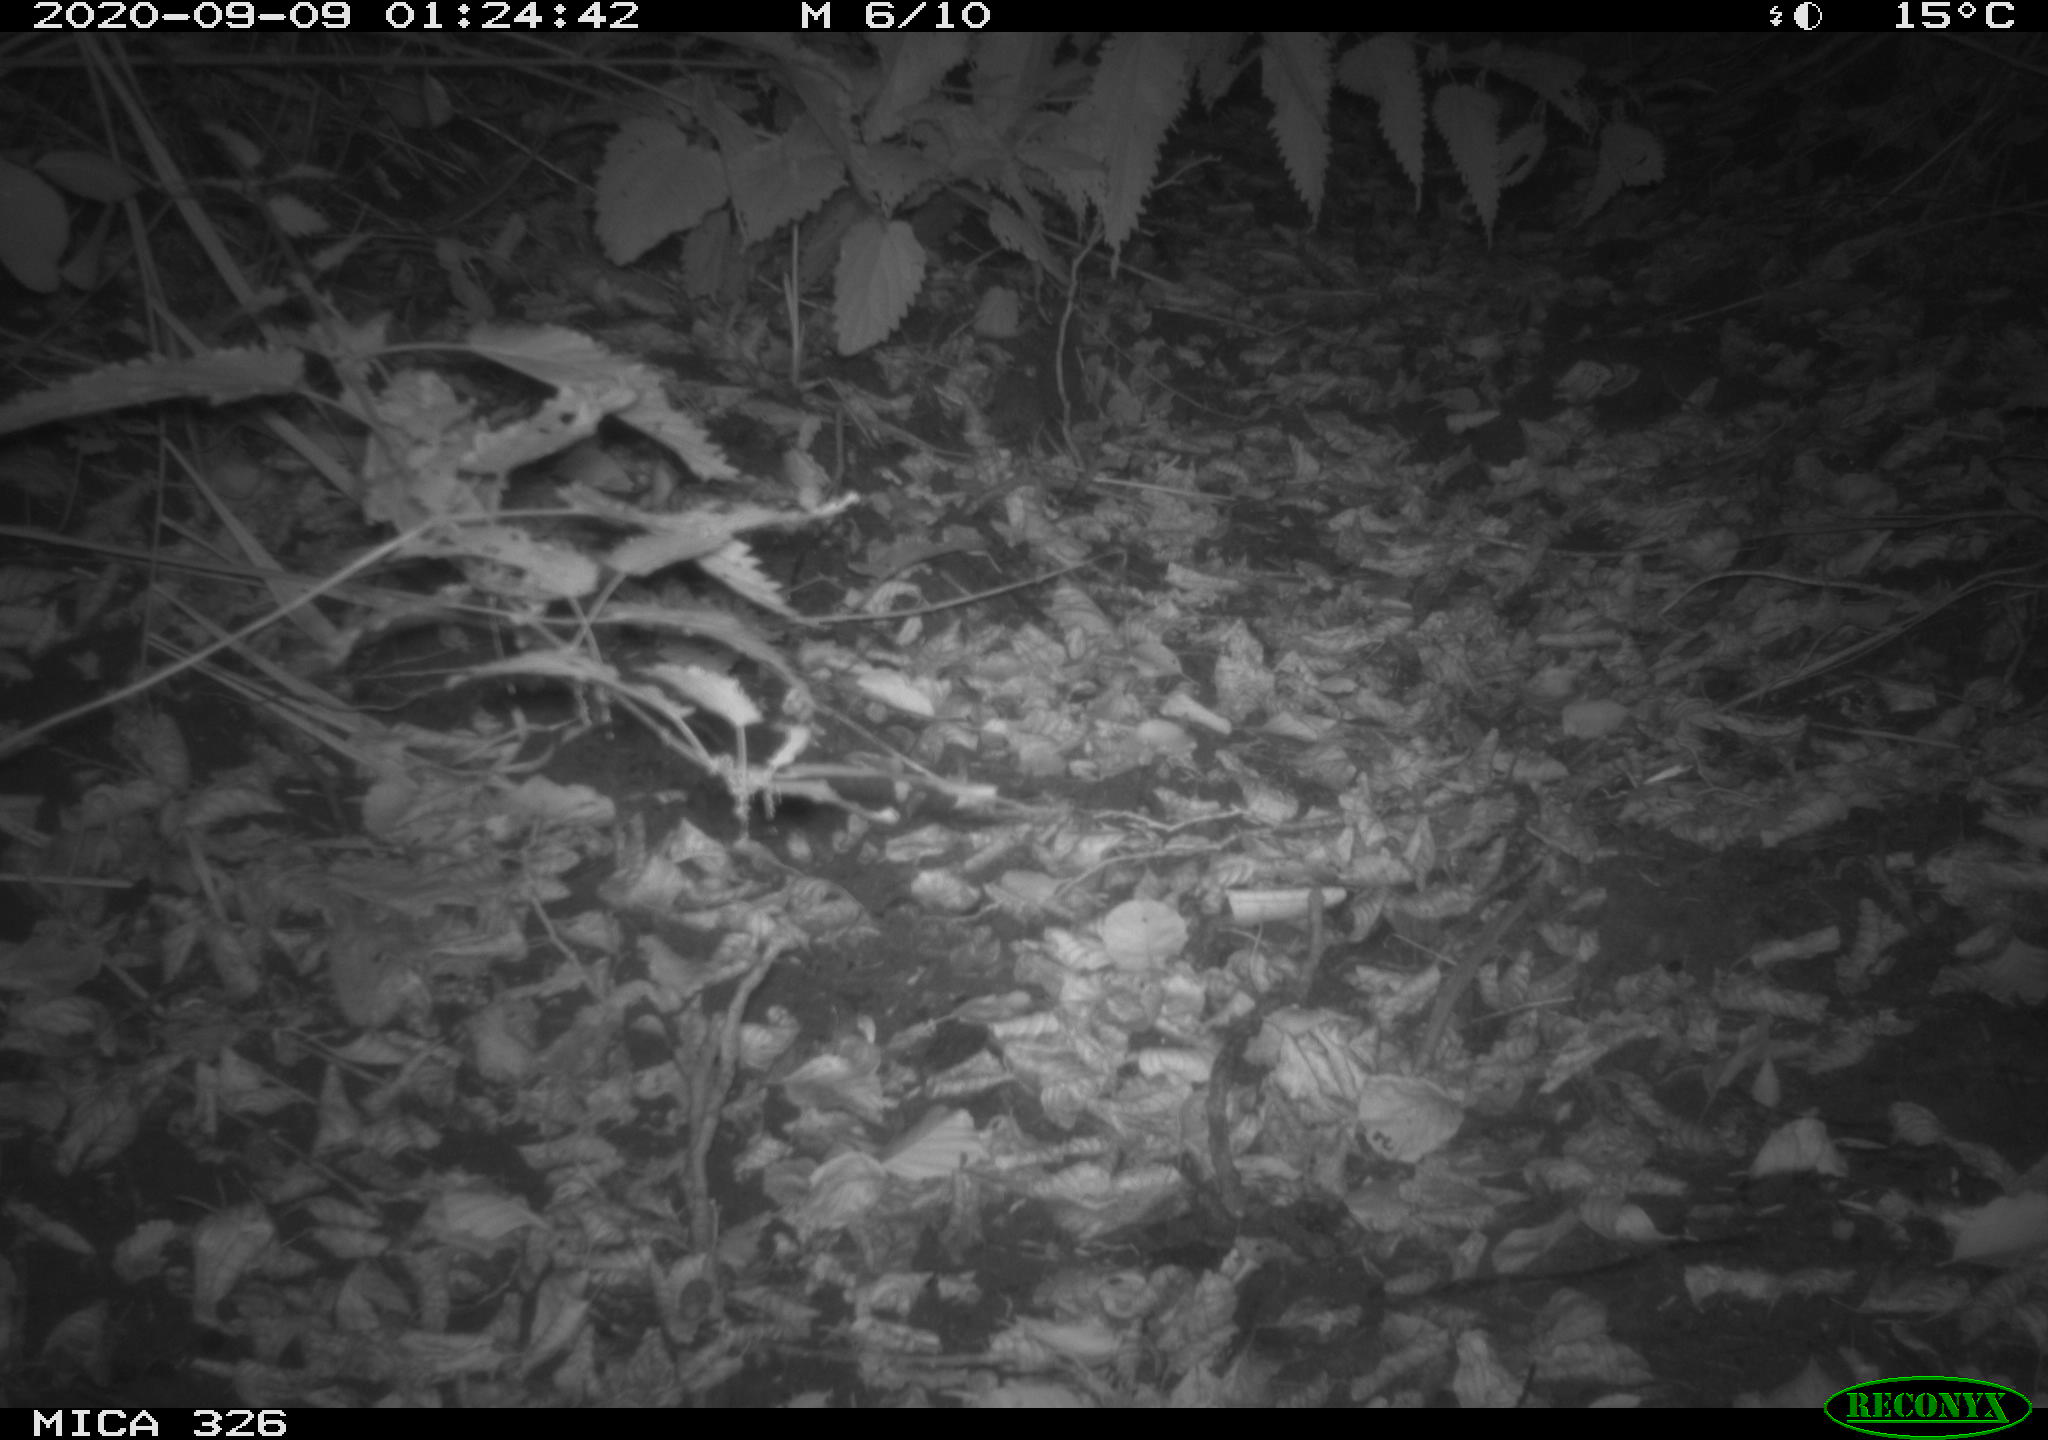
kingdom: Animalia
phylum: Chordata
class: Mammalia
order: Carnivora
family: Mustelidae
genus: Lutra
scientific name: Lutra lutra
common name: European otter
